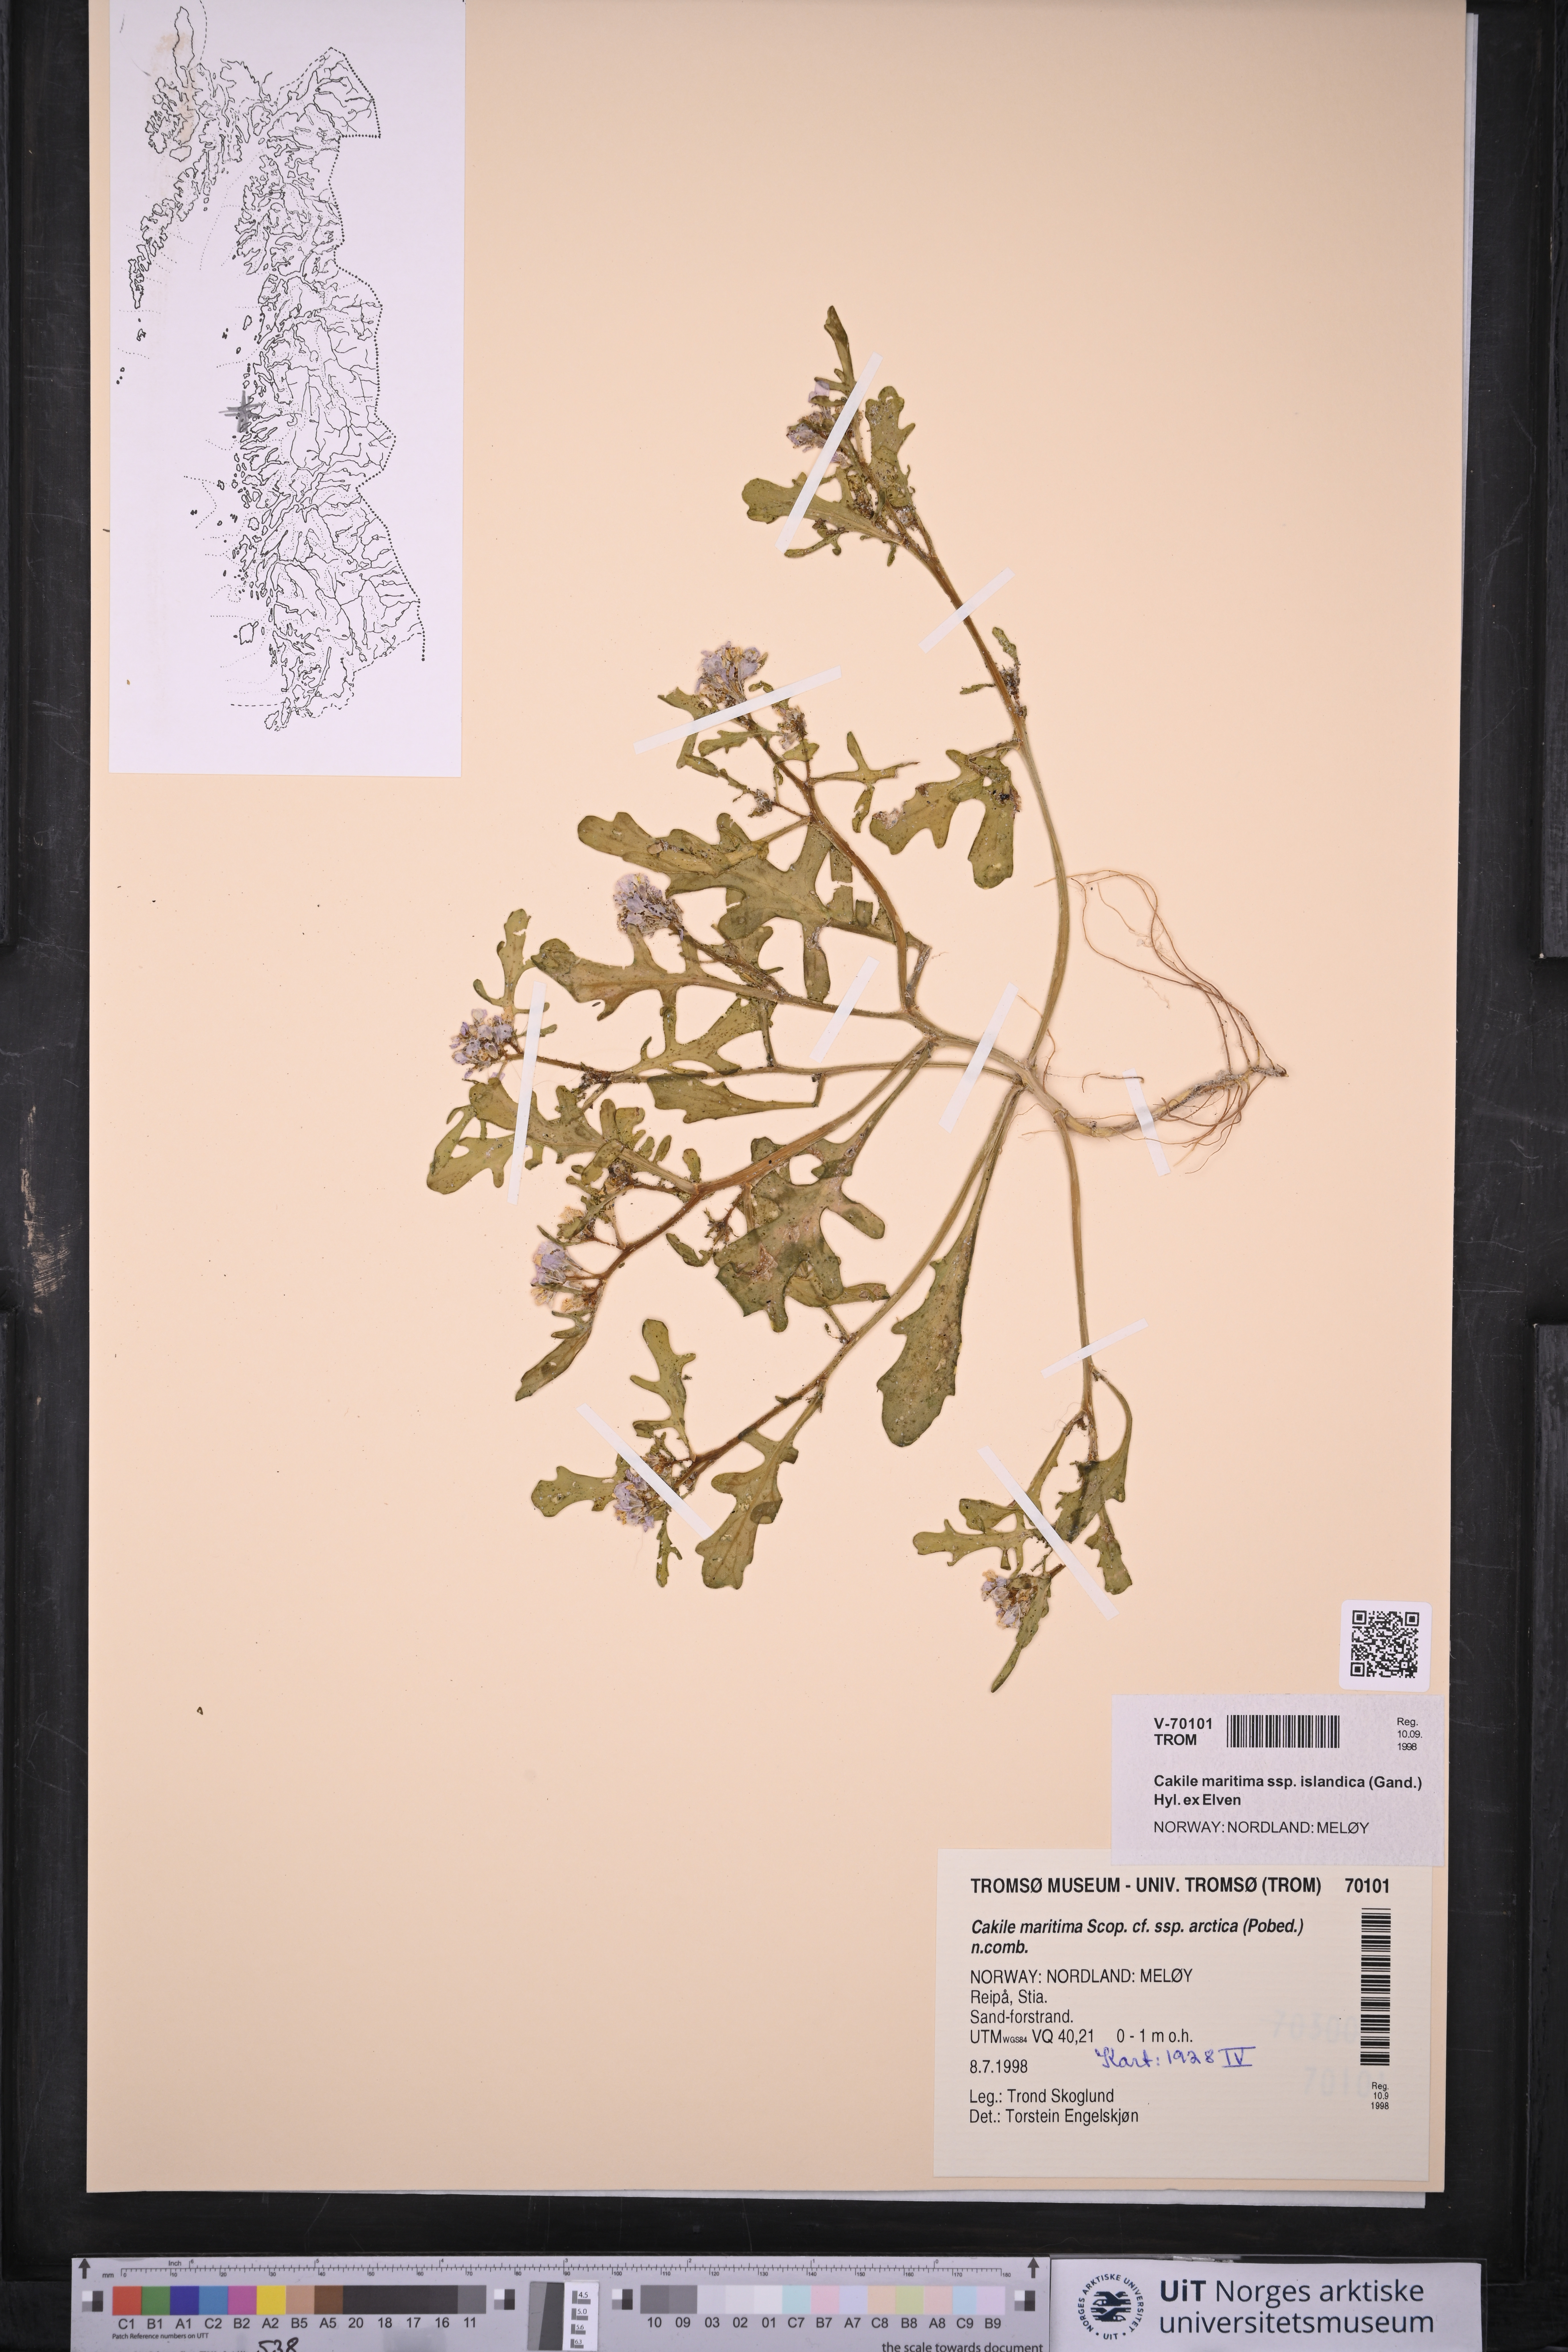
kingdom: Plantae
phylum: Tracheophyta
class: Magnoliopsida
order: Brassicales
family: Brassicaceae
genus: Cakile
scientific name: Cakile arctica
